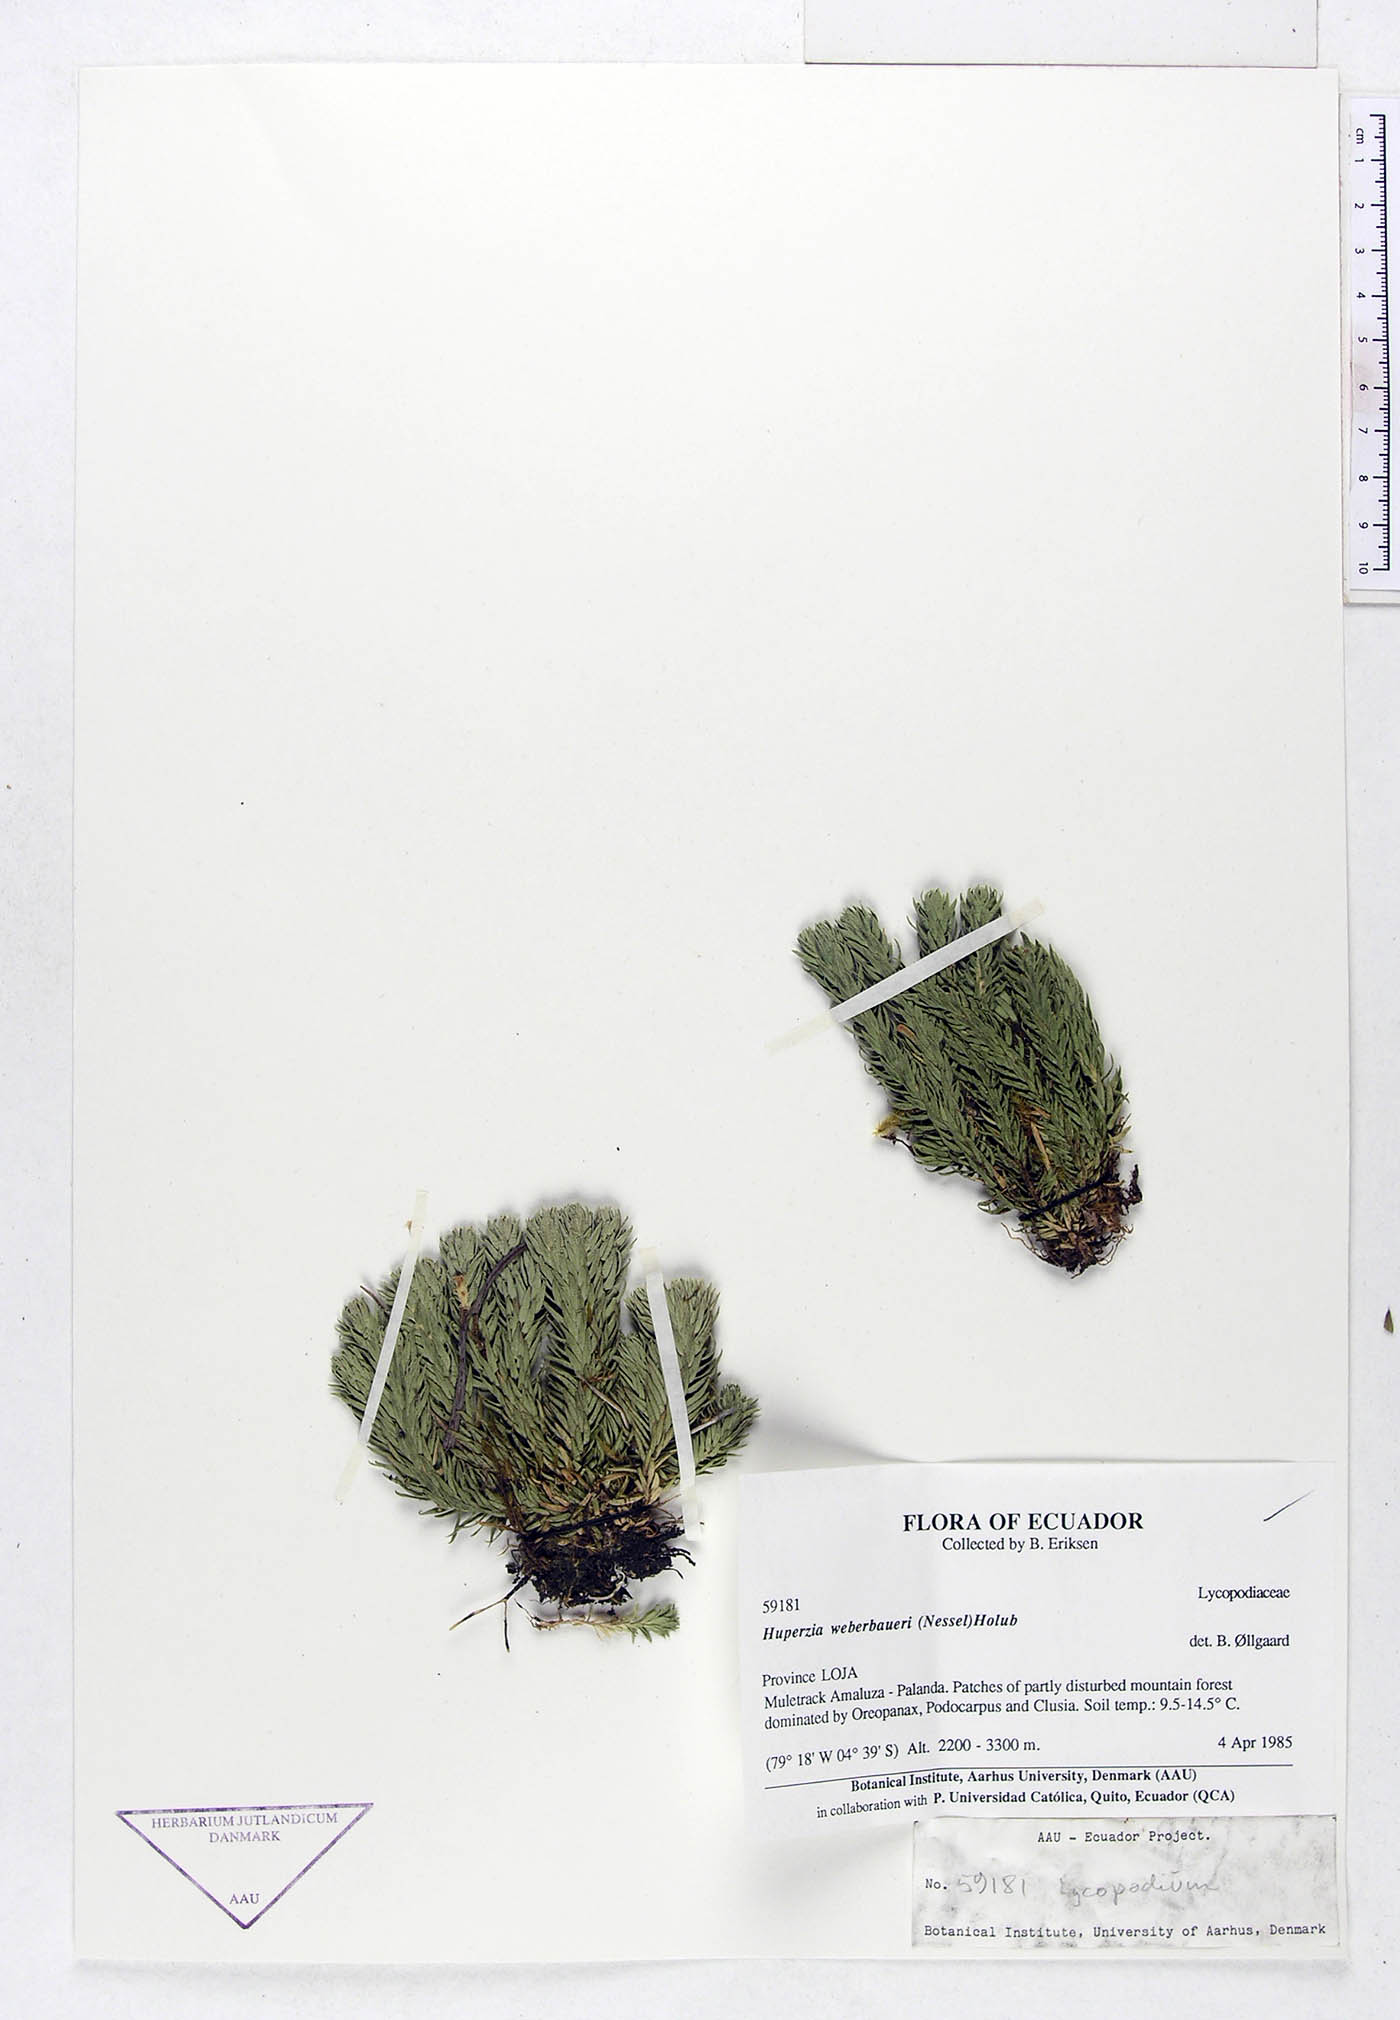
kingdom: Plantae
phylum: Tracheophyta
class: Lycopodiopsida
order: Lycopodiales
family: Lycopodiaceae
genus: Phlegmariurus
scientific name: Phlegmariurus weberbaueri
